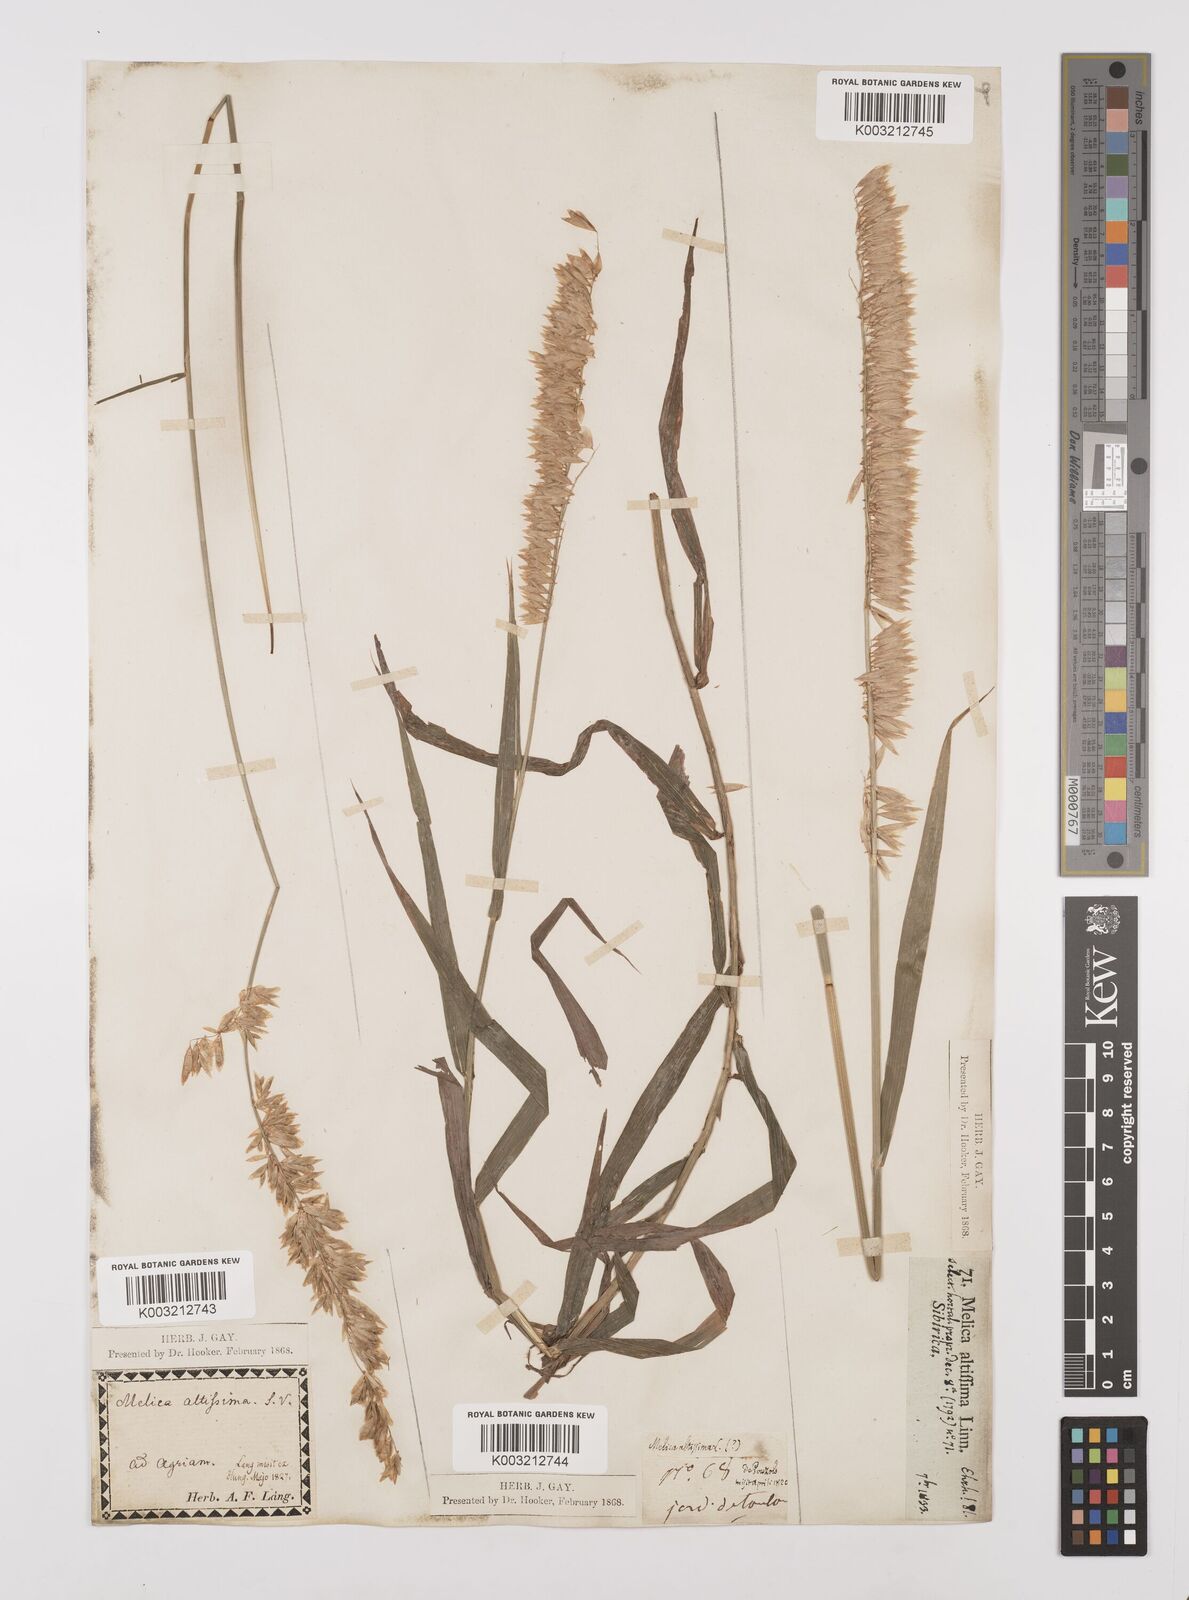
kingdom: Plantae
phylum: Tracheophyta
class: Liliopsida
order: Poales
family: Poaceae
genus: Melica
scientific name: Melica altissima
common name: Siberian melicgrass
